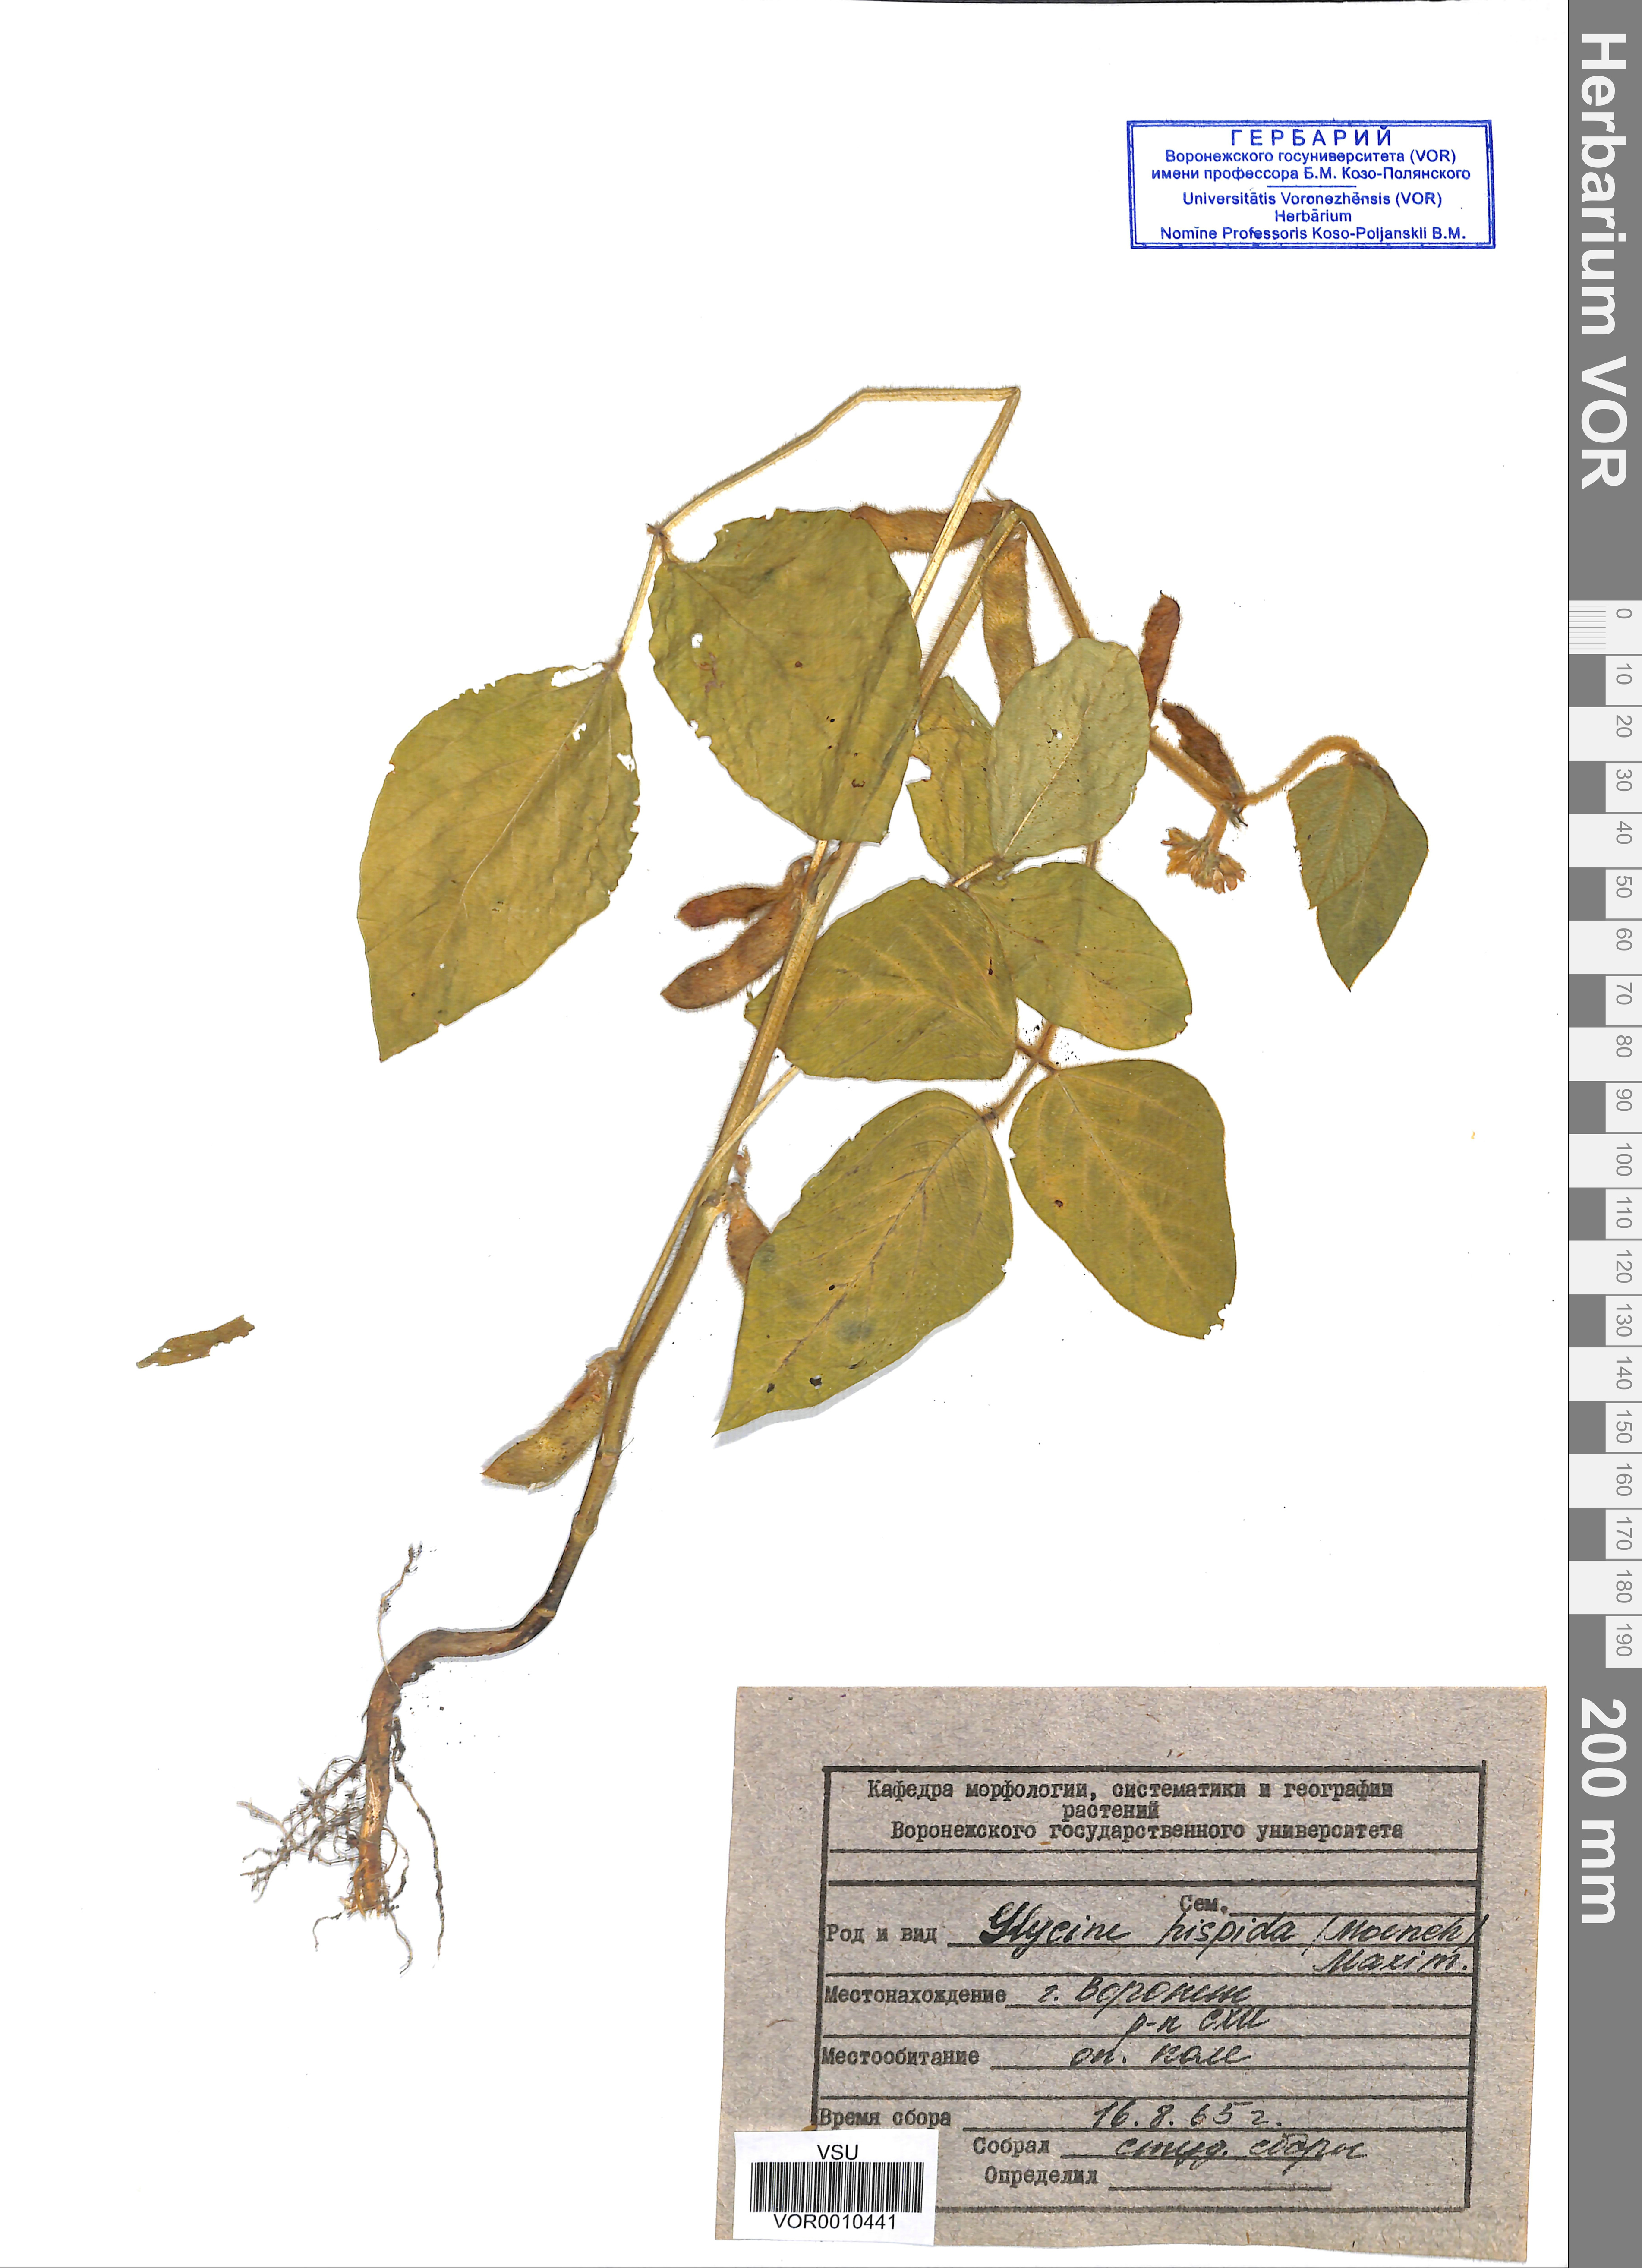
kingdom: Plantae
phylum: Tracheophyta
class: Magnoliopsida
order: Fabales
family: Fabaceae
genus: Glycine
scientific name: Glycine max
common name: Soya-bean
